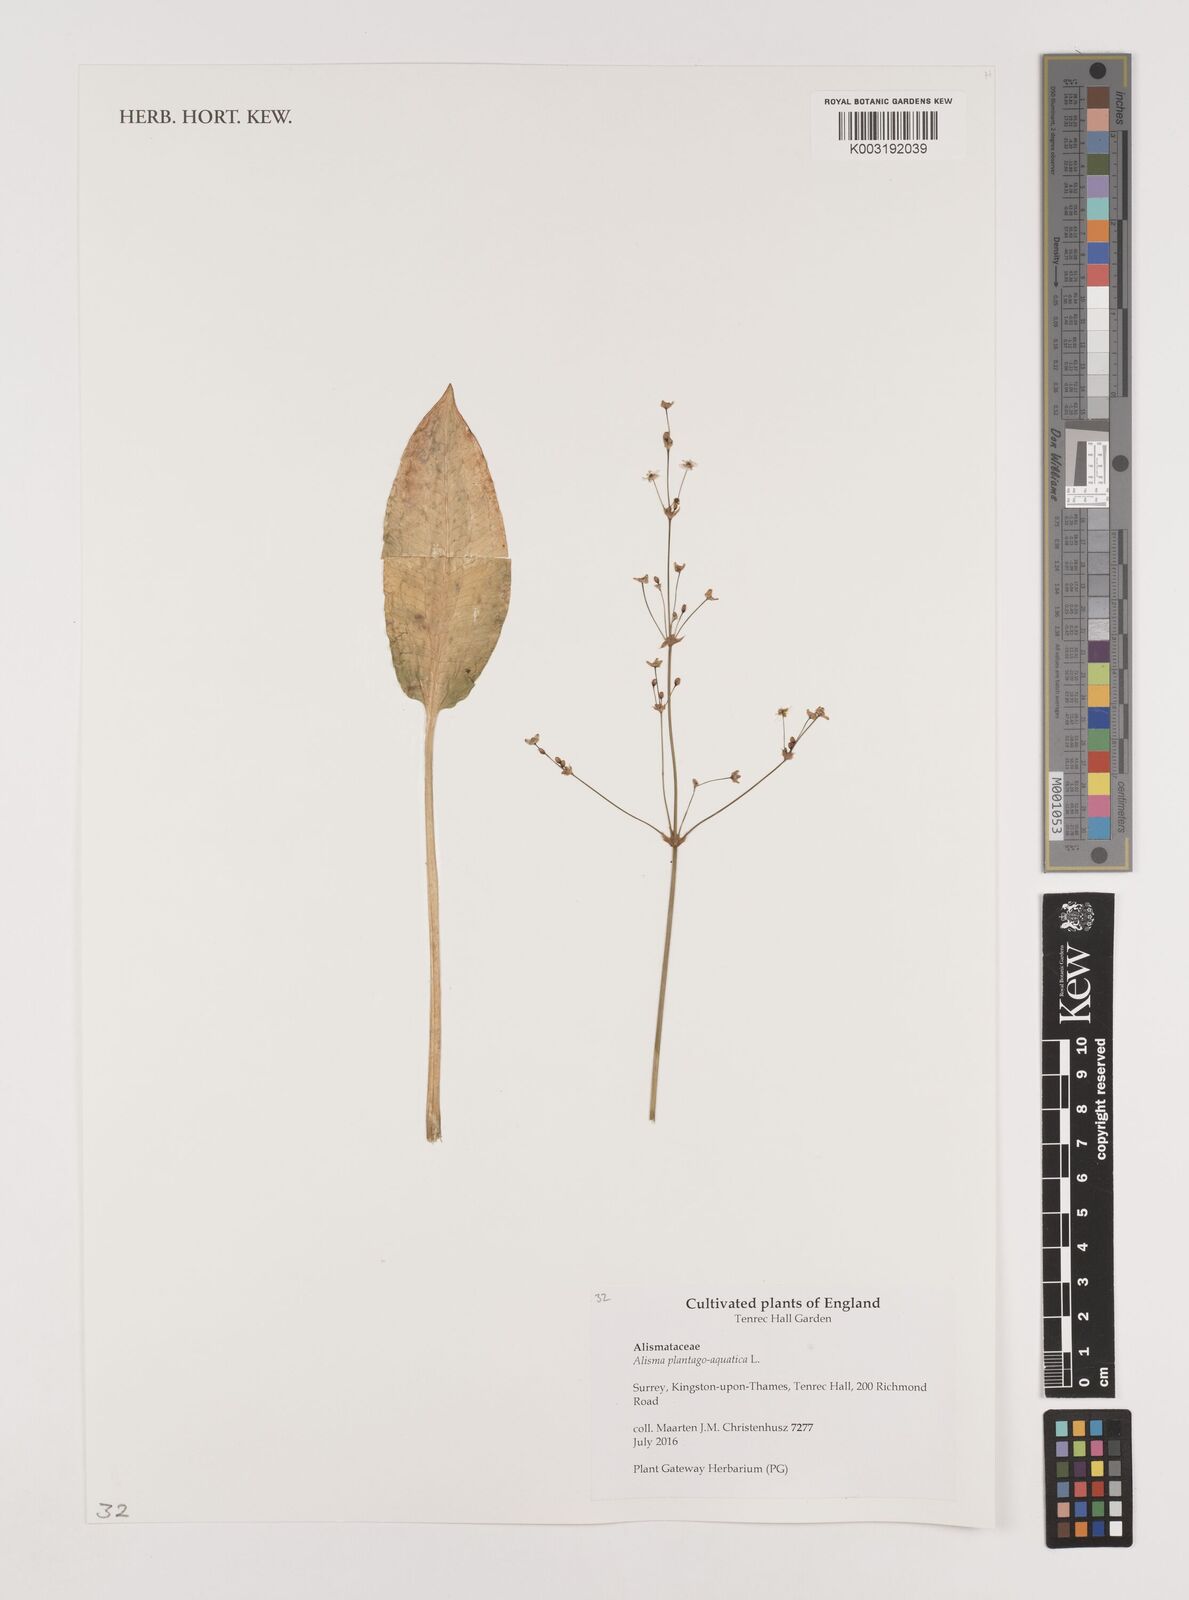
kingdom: Plantae
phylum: Tracheophyta
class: Liliopsida
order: Alismatales
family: Alismataceae
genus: Alisma
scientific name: Alisma plantago-aquatica
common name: Water-plantain
